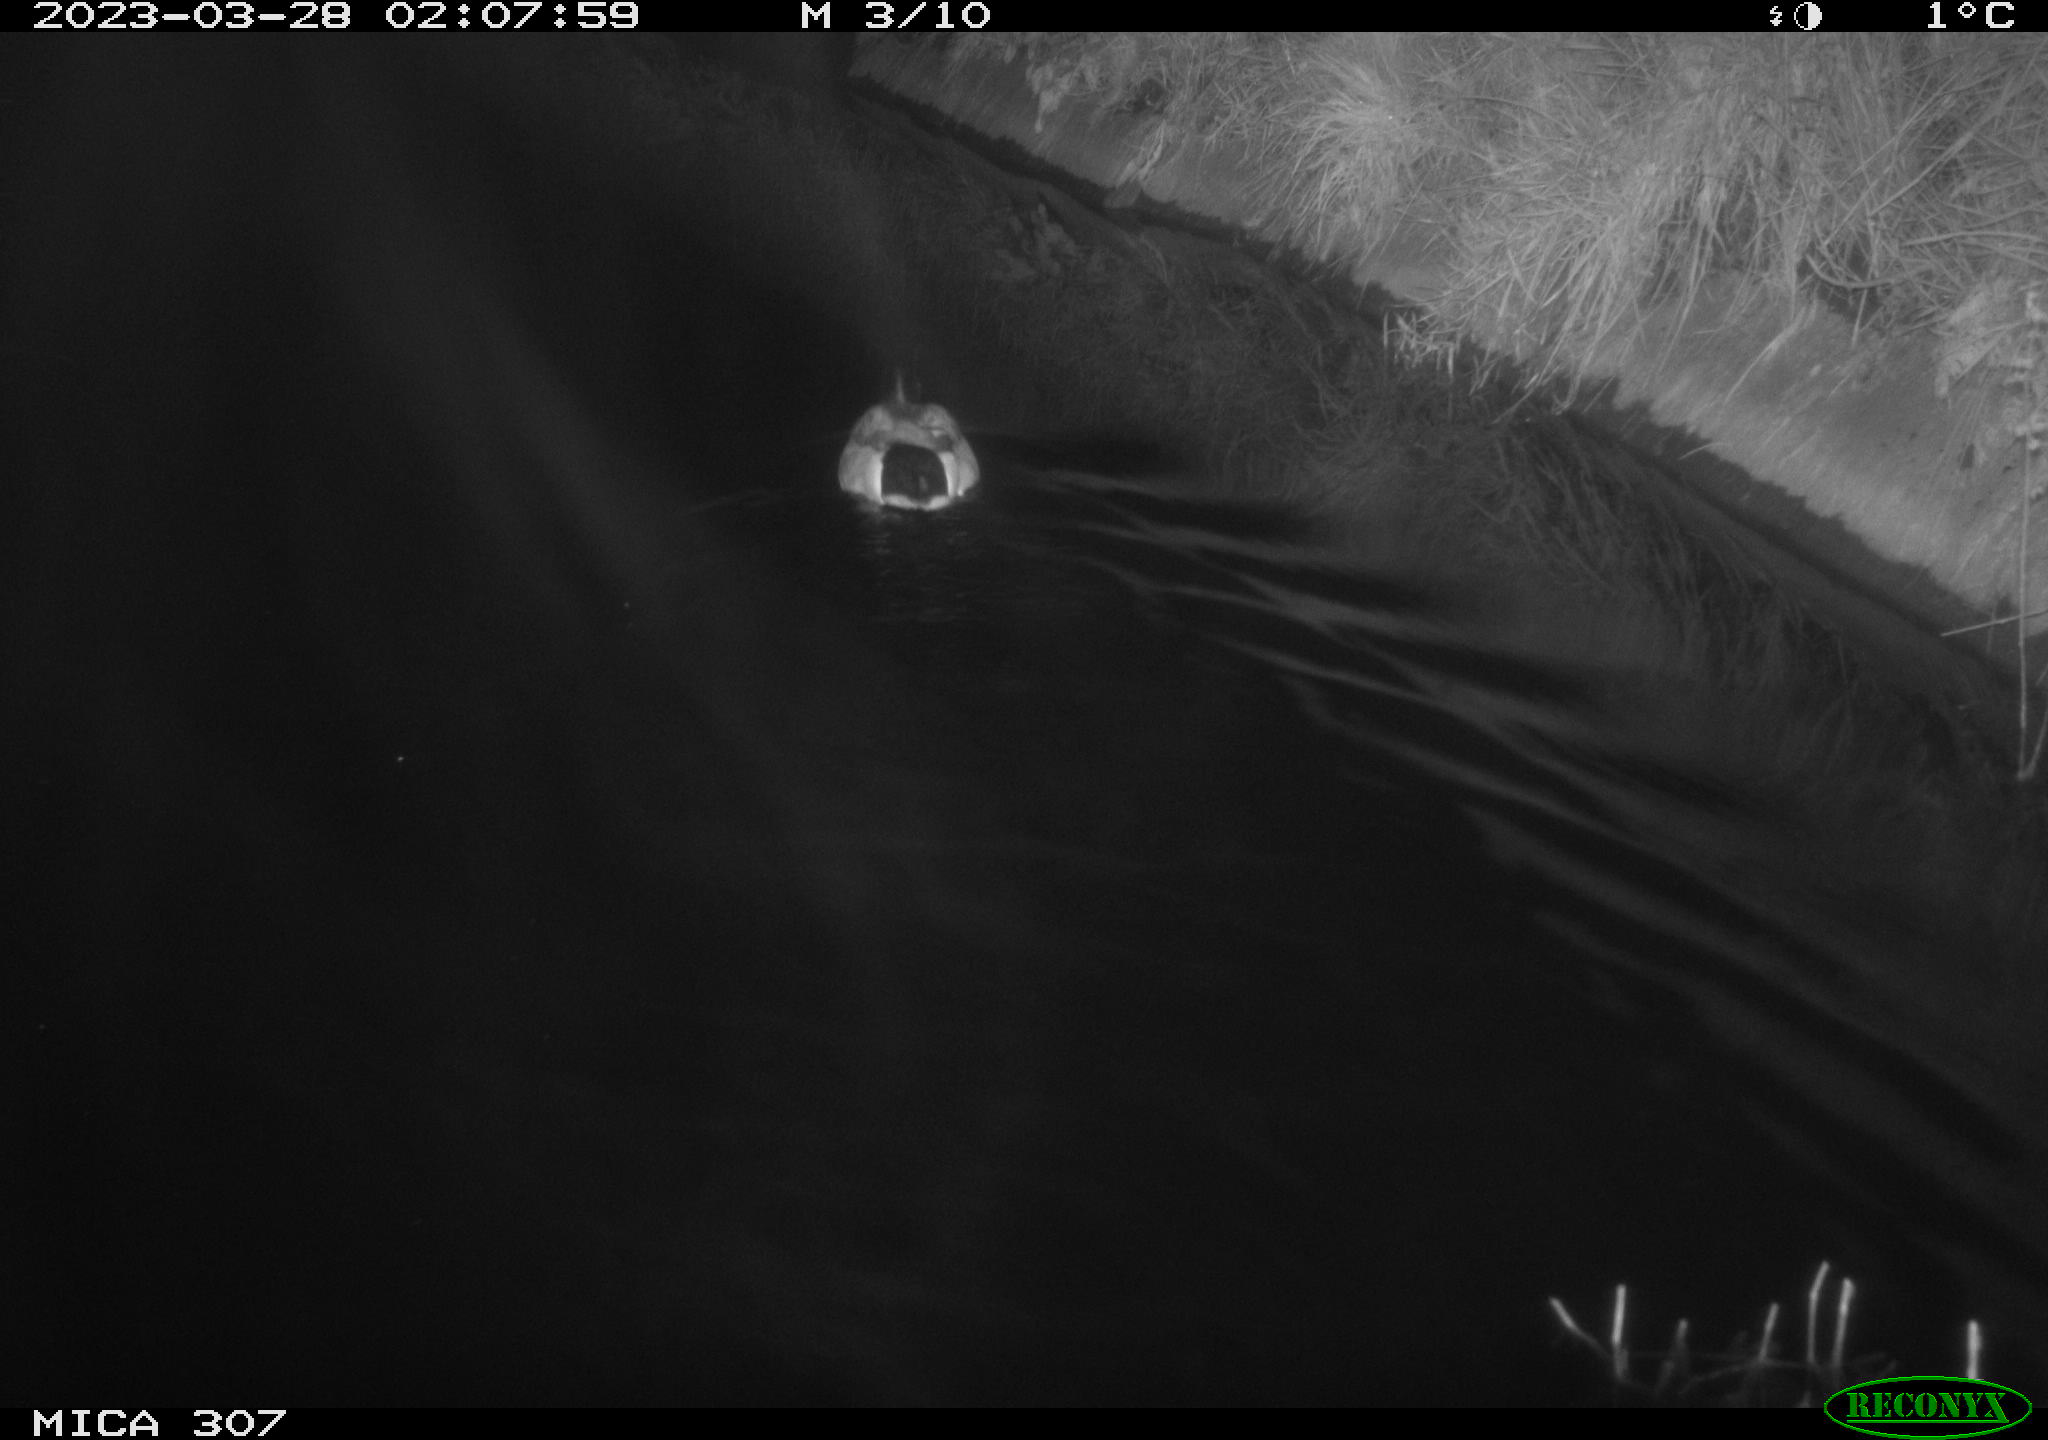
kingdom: Animalia
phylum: Chordata
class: Aves
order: Anseriformes
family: Anatidae
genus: Anas
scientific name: Anas
